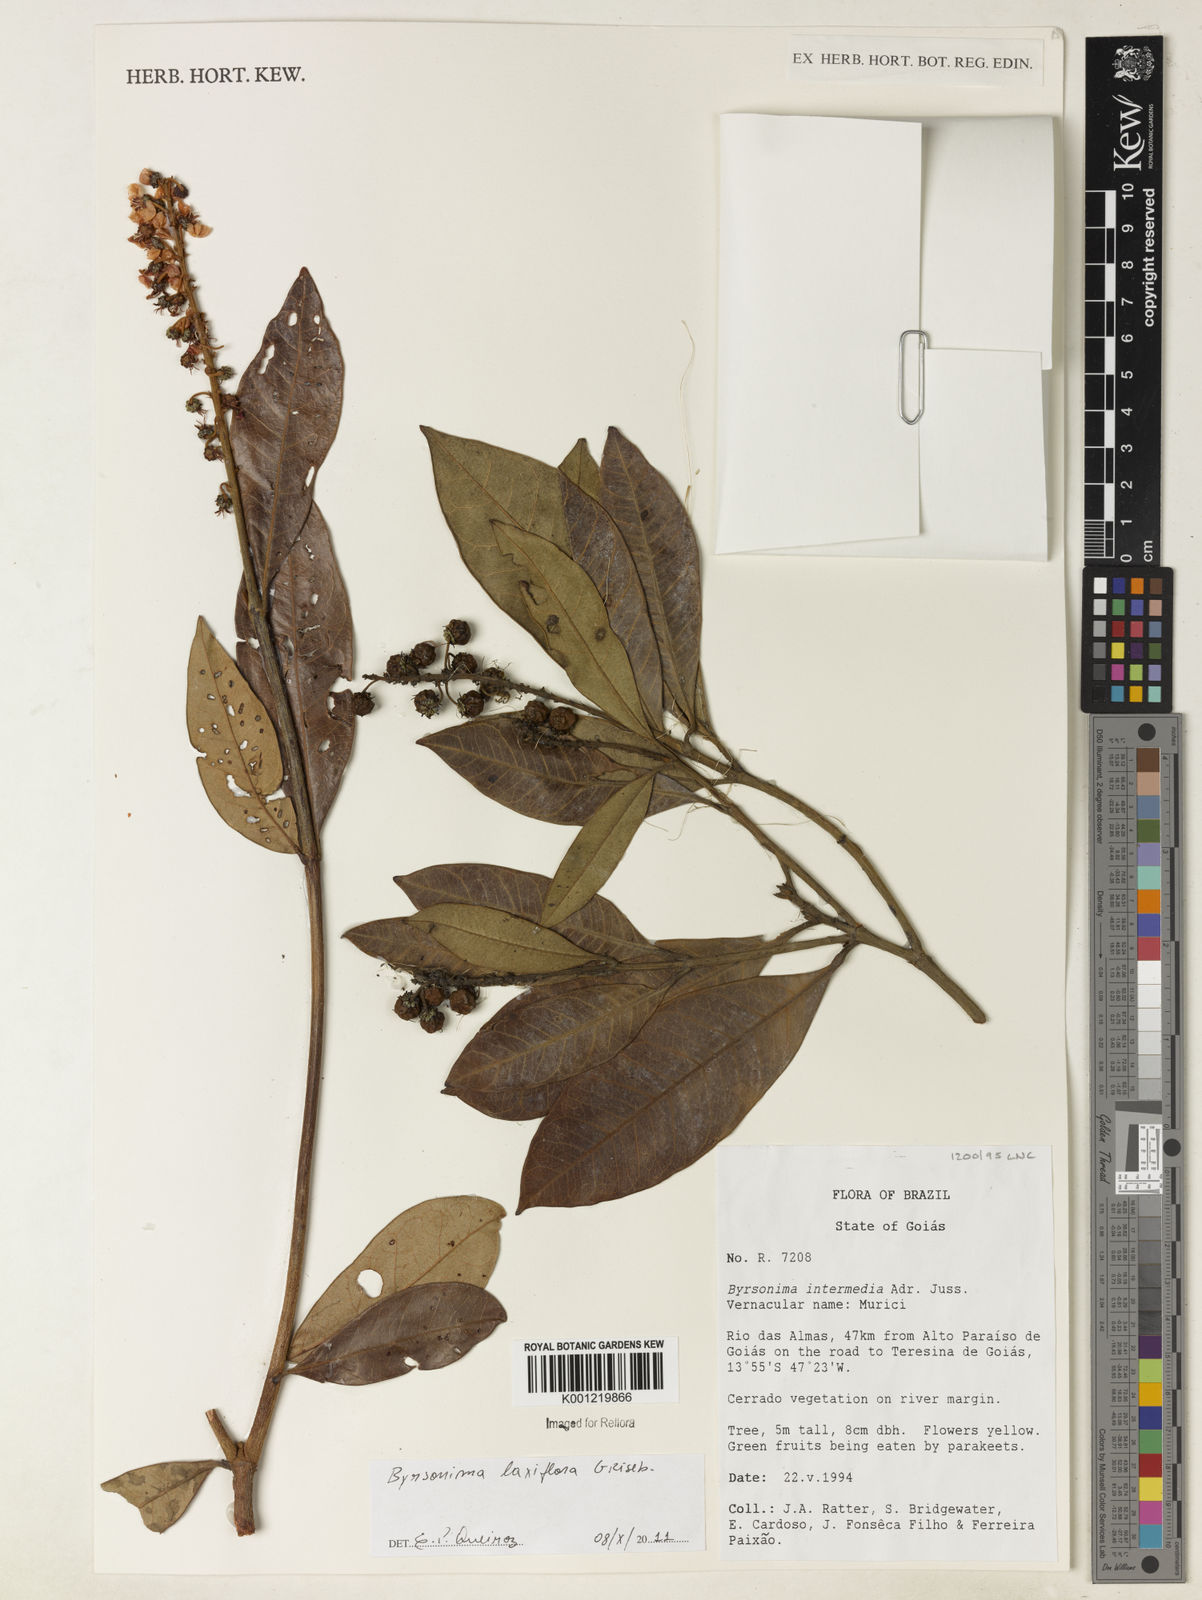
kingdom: Plantae
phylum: Tracheophyta
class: Magnoliopsida
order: Malpighiales
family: Malpighiaceae
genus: Byrsonima
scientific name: Byrsonima laxiflora
